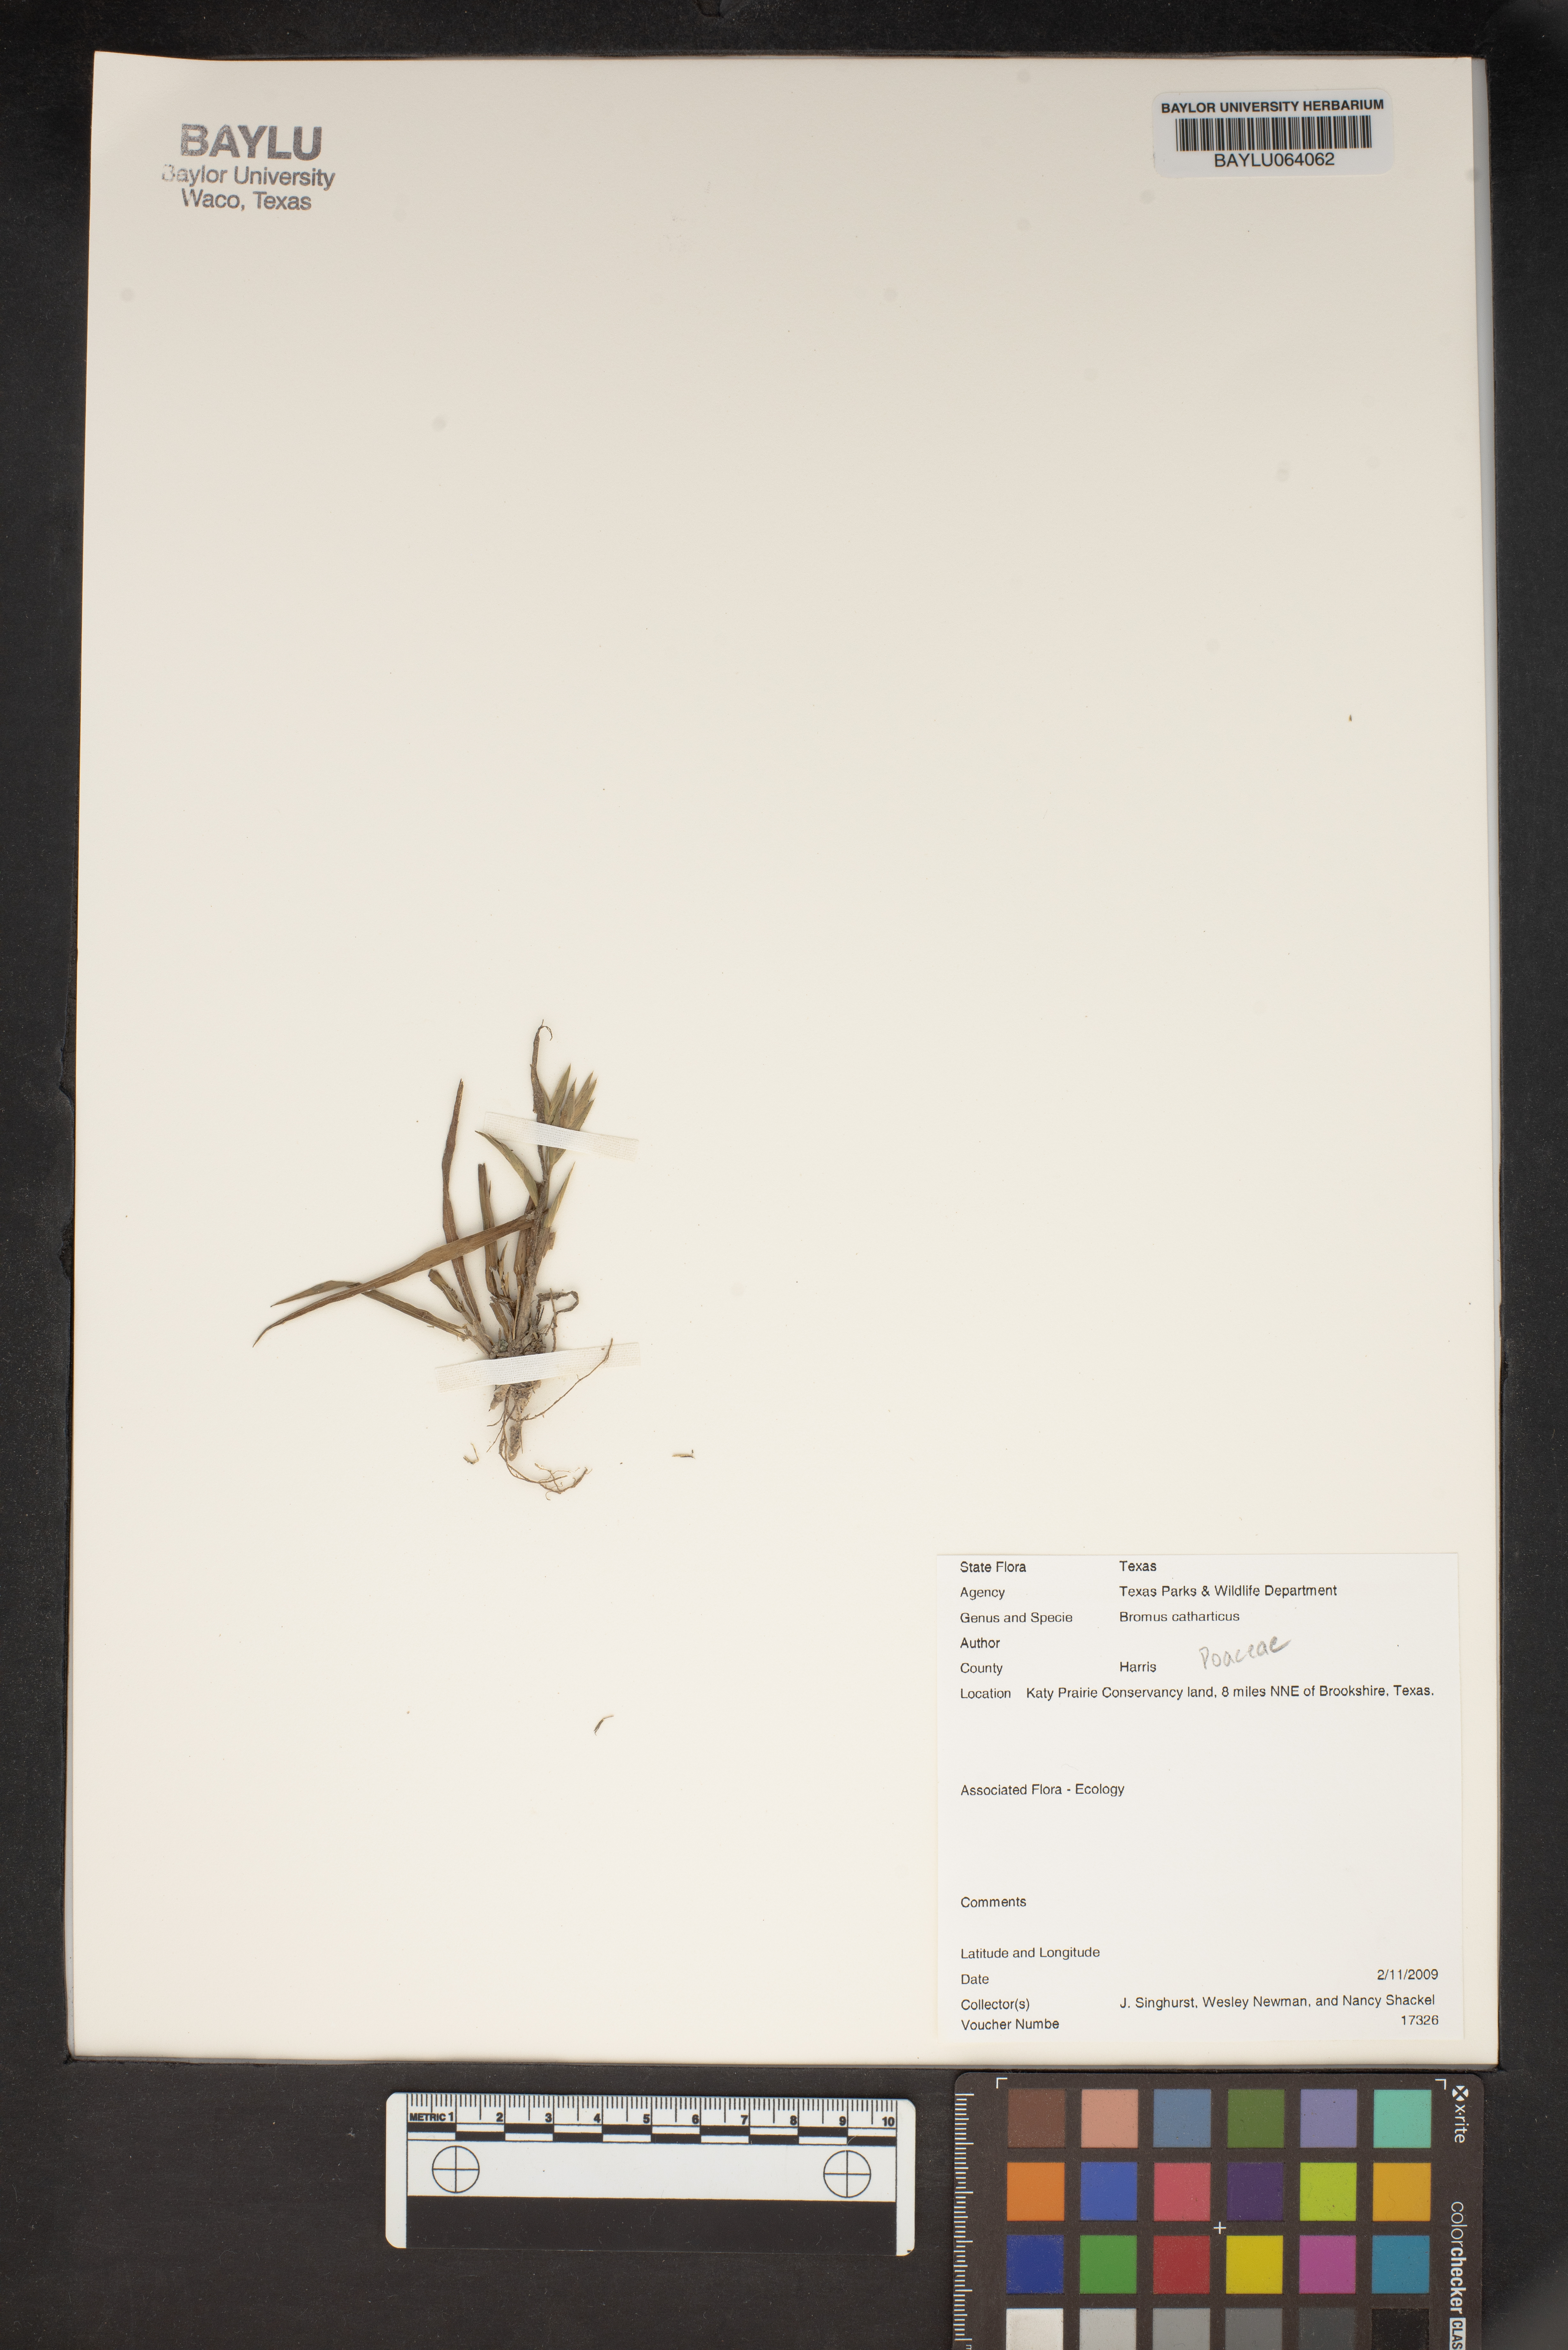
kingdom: Plantae
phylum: Tracheophyta
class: Liliopsida
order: Poales
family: Poaceae
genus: Bromus
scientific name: Bromus catharticus
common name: Rescuegrass
